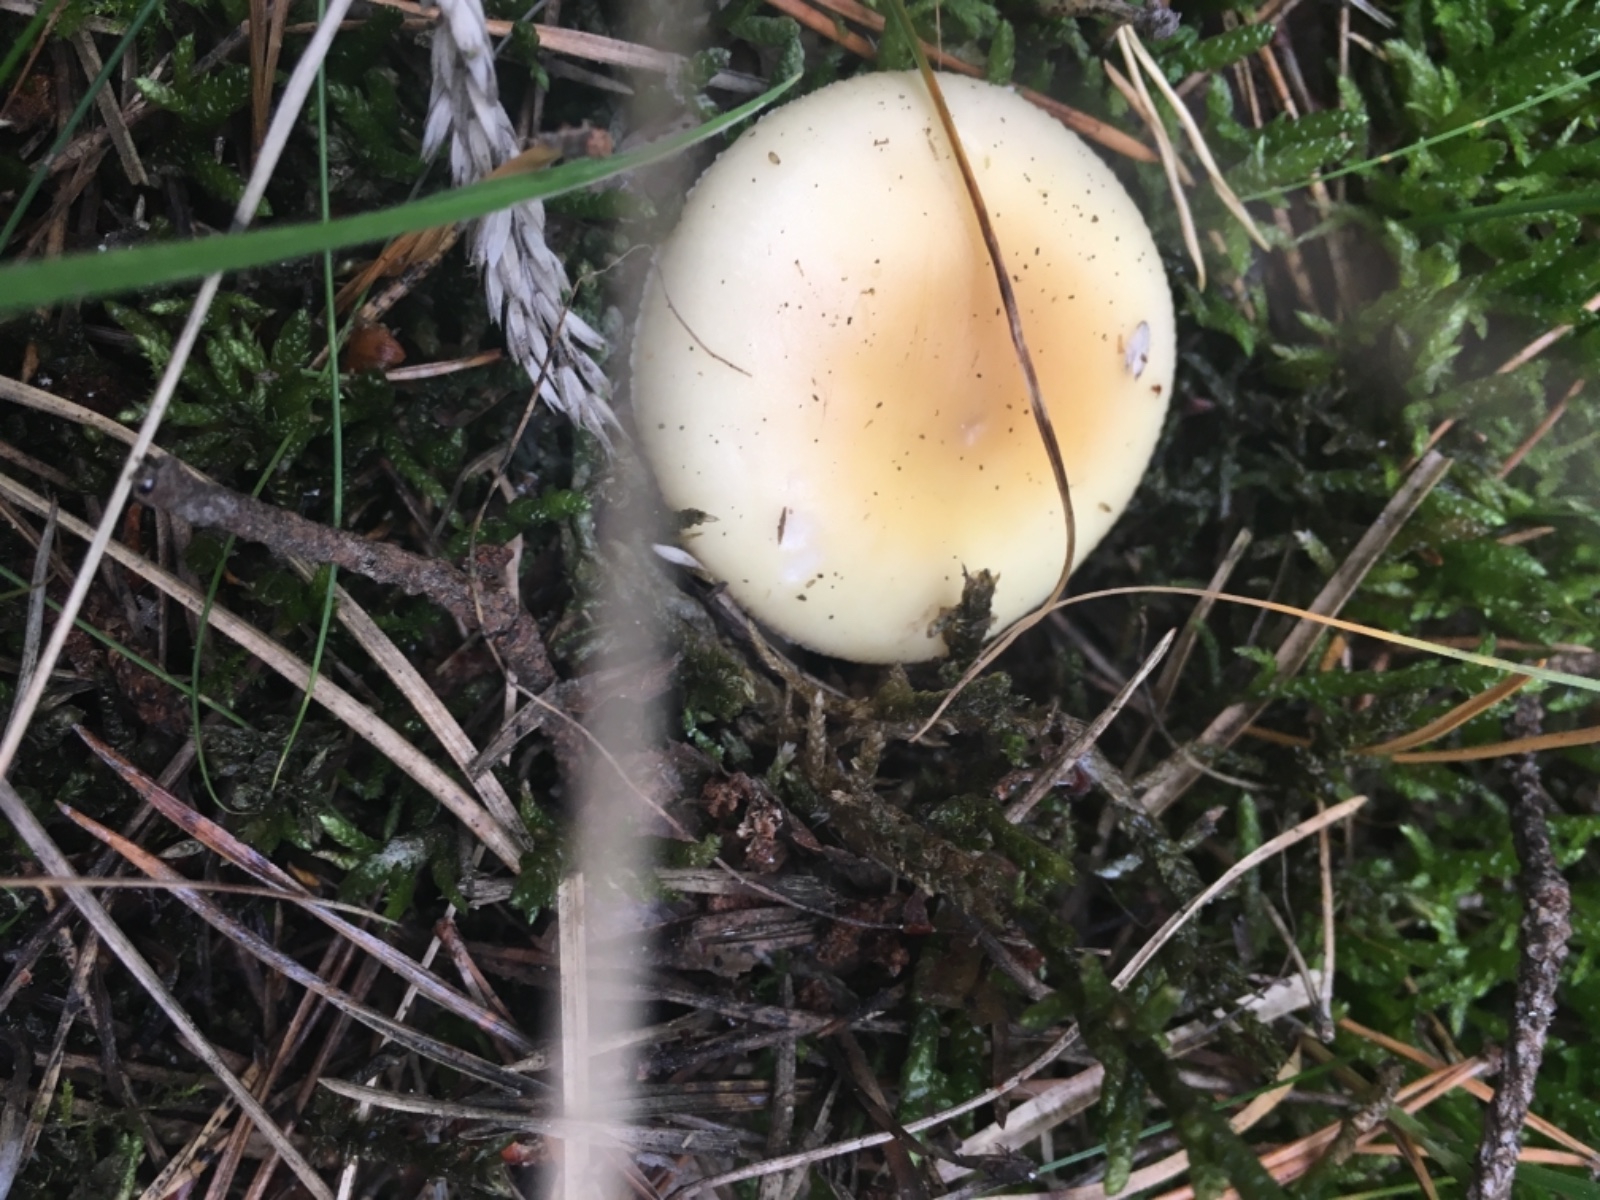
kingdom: Fungi
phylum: Basidiomycota
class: Agaricomycetes
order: Agaricales
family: Amanitaceae
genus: Amanita
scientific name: Amanita gemmata
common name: okkergul fluesvamp
